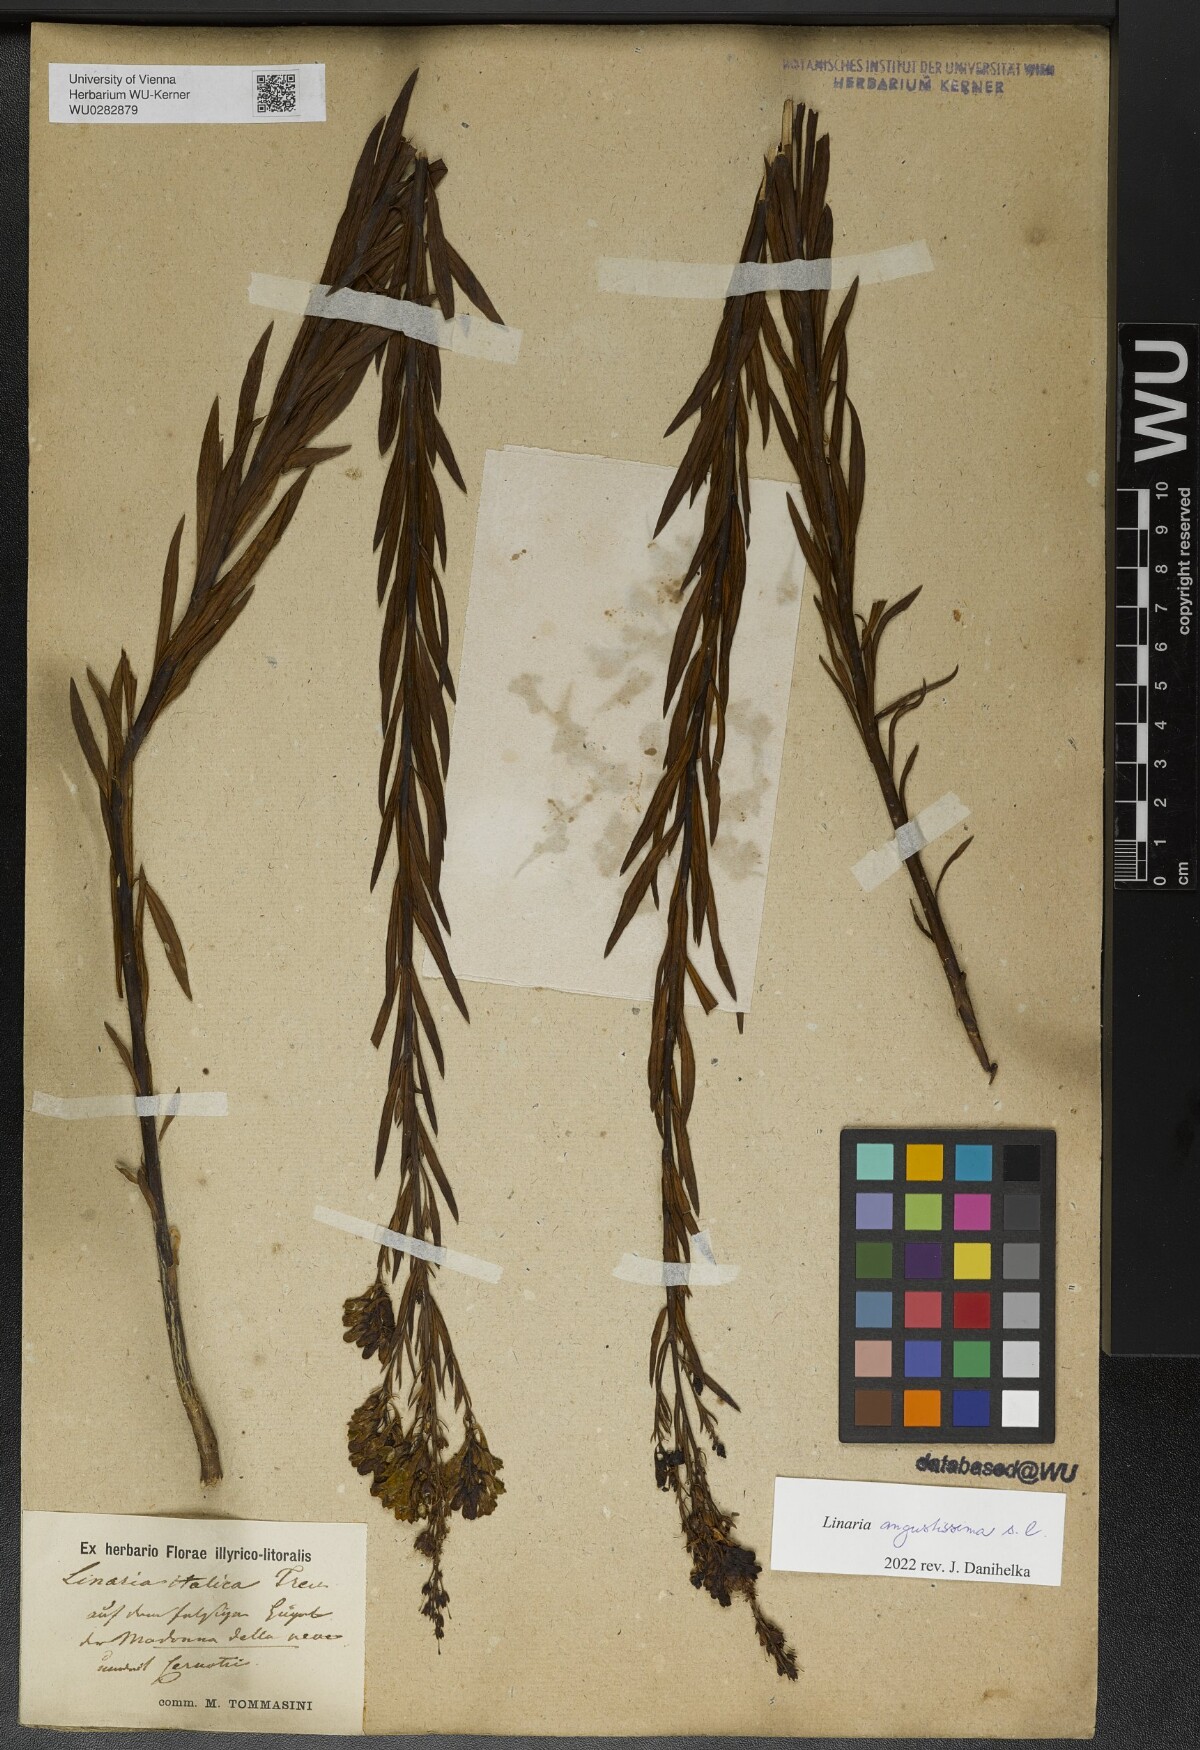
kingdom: Plantae
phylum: Tracheophyta
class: Magnoliopsida
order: Lamiales
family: Plantaginaceae
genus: Linaria
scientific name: Linaria angustissima
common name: Italian toadflax
